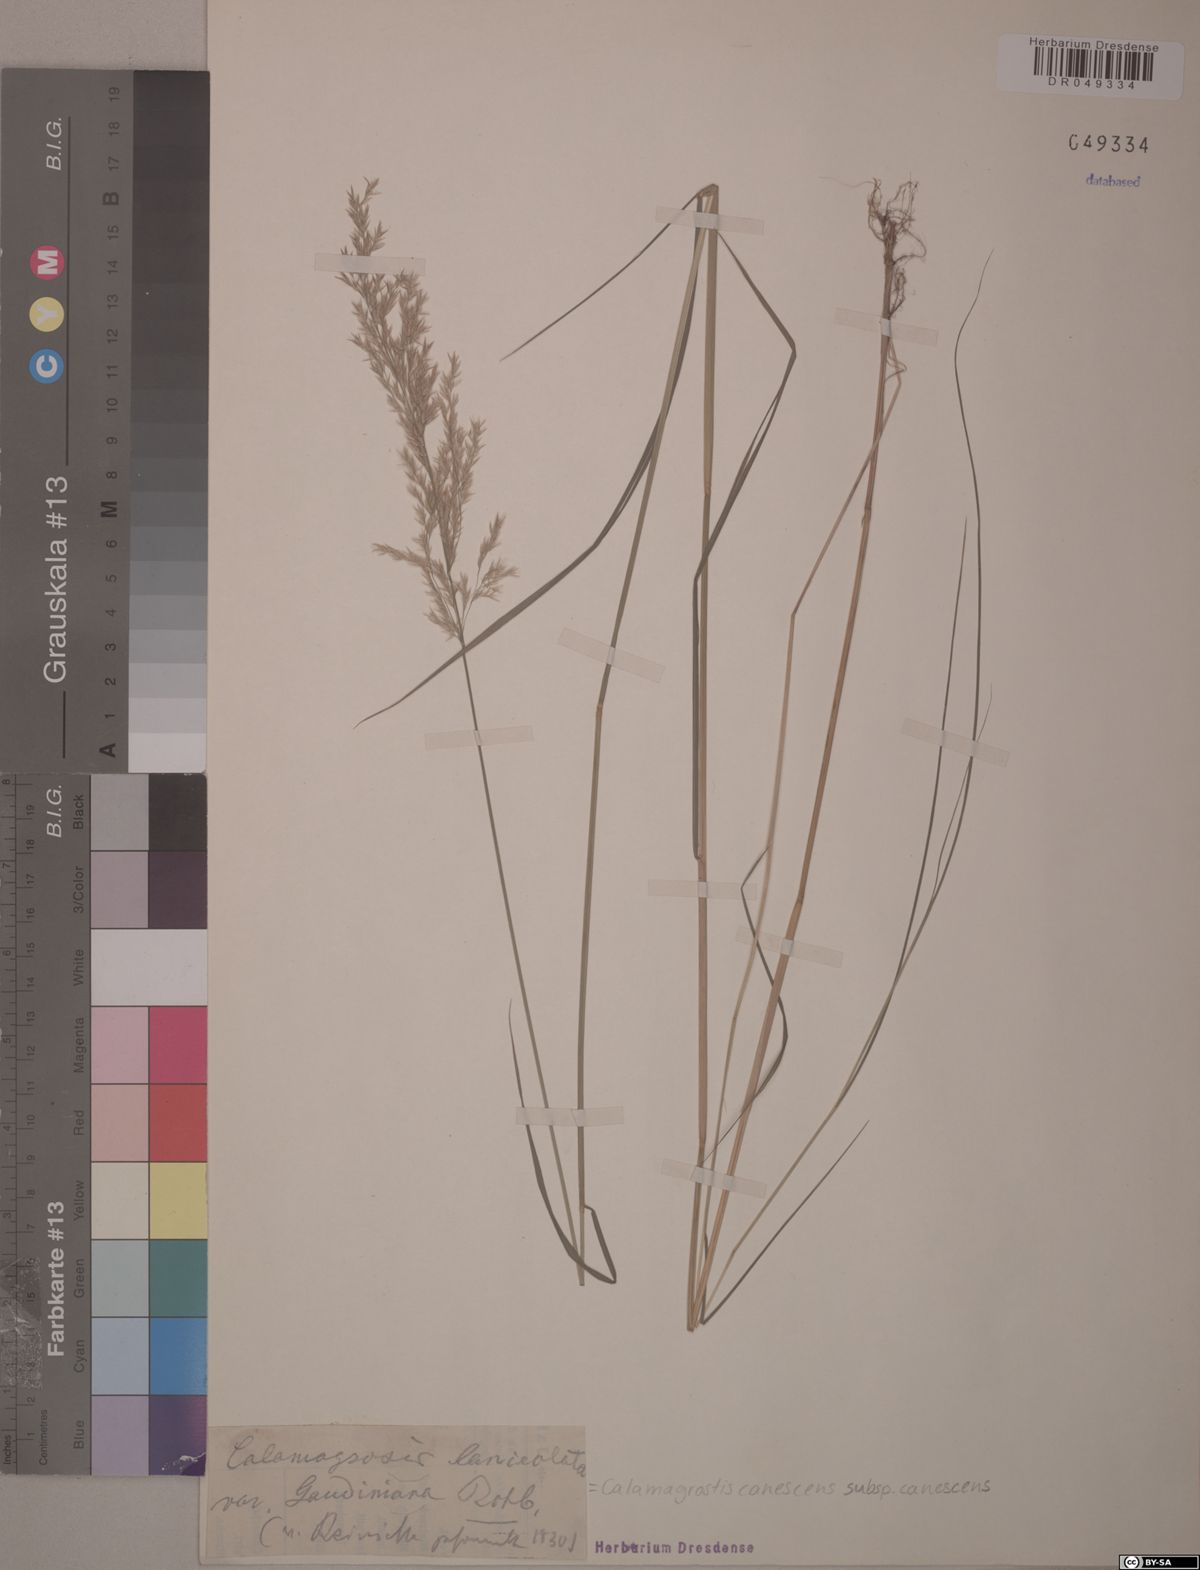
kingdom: Plantae
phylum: Tracheophyta
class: Liliopsida
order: Poales
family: Poaceae
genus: Calamagrostis
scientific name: Calamagrostis canescens
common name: Purple small-reed
